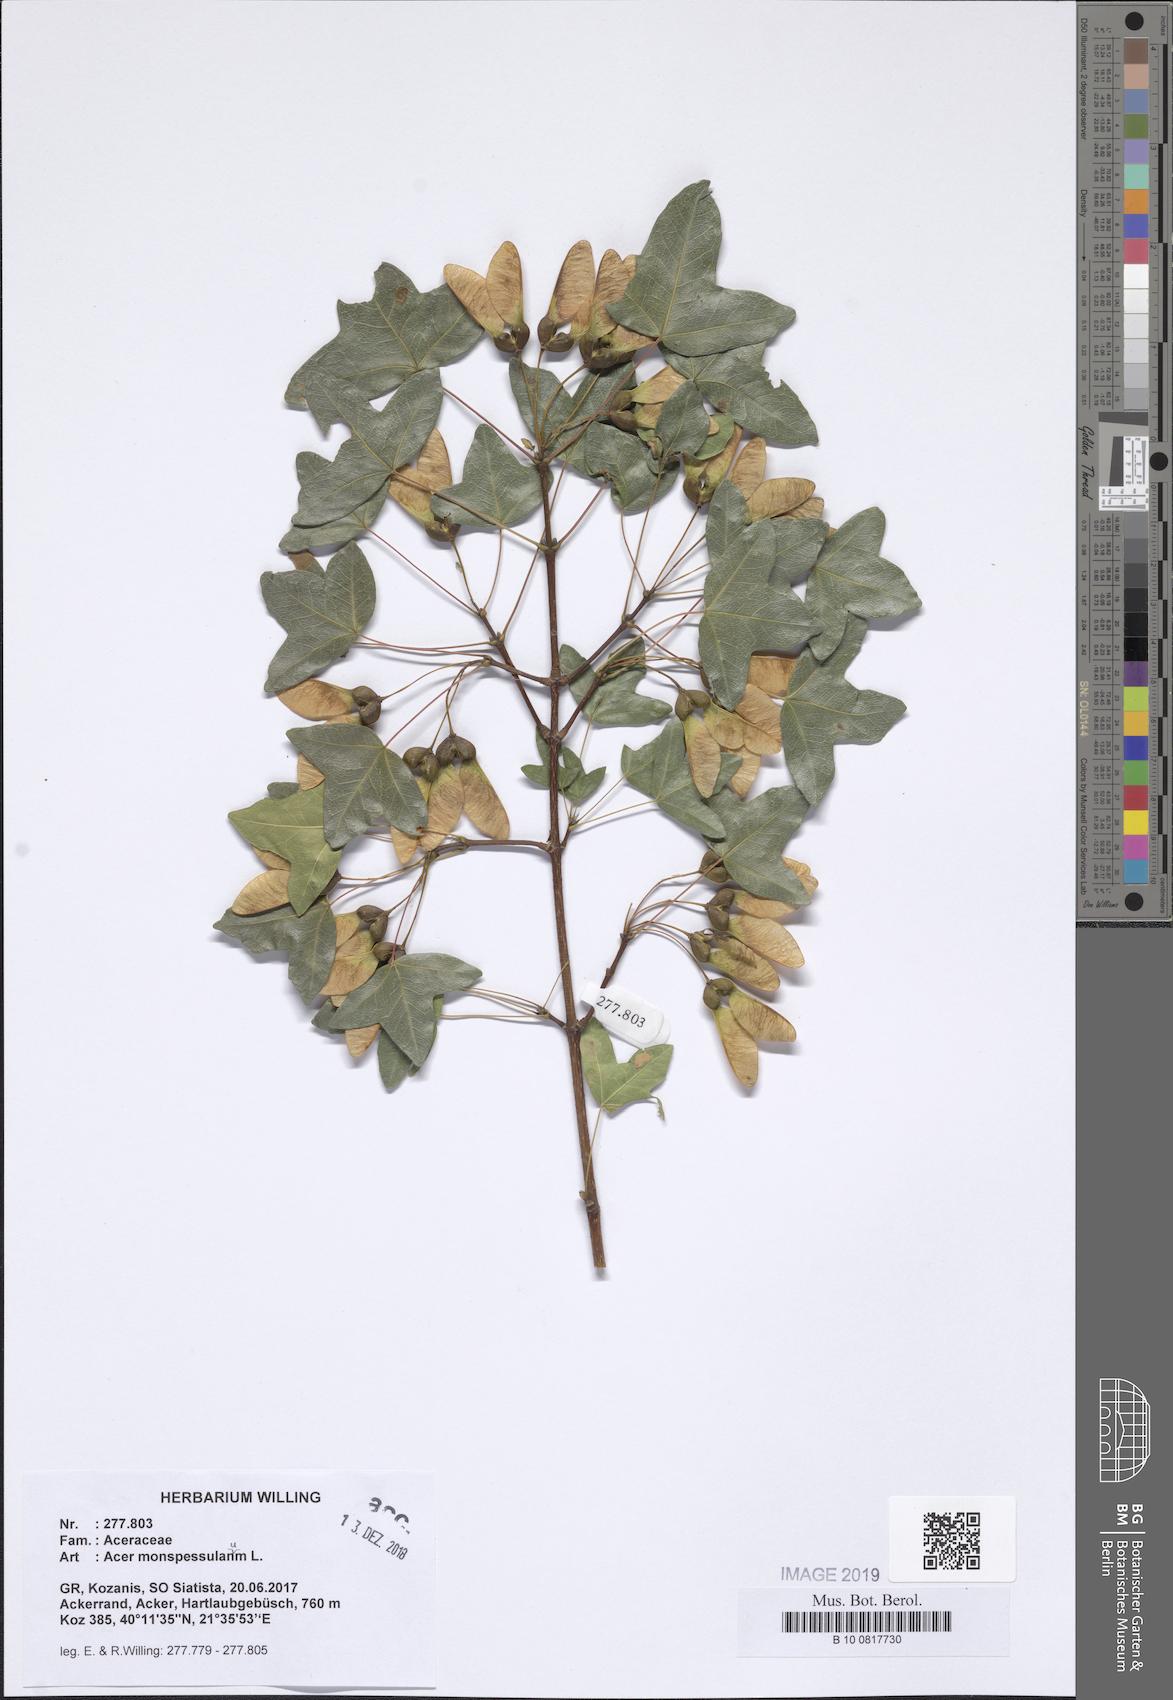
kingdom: Plantae
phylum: Tracheophyta
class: Magnoliopsida
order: Sapindales
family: Sapindaceae
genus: Acer
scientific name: Acer monspessulanum
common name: Montpellier maple
